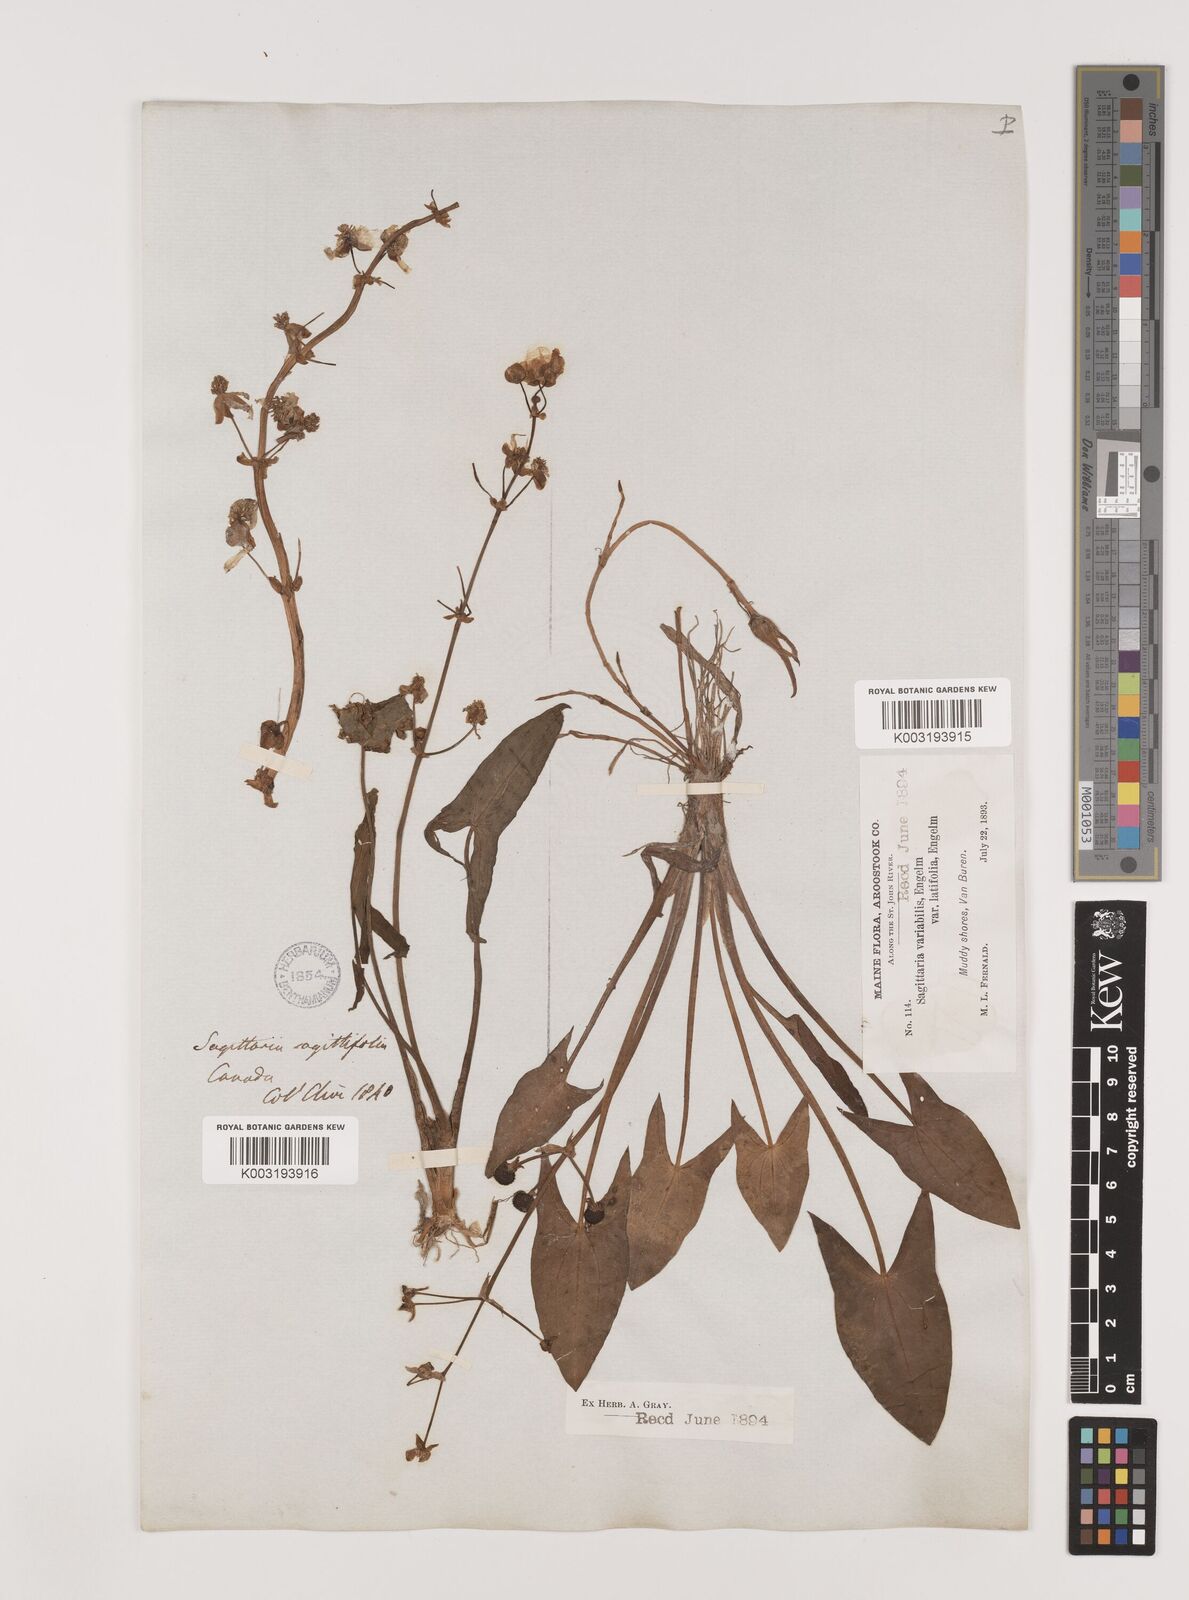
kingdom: Plantae
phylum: Tracheophyta
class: Liliopsida
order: Alismatales
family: Alismataceae
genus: Sagittaria
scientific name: Sagittaria latifolia
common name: Duck-potato
